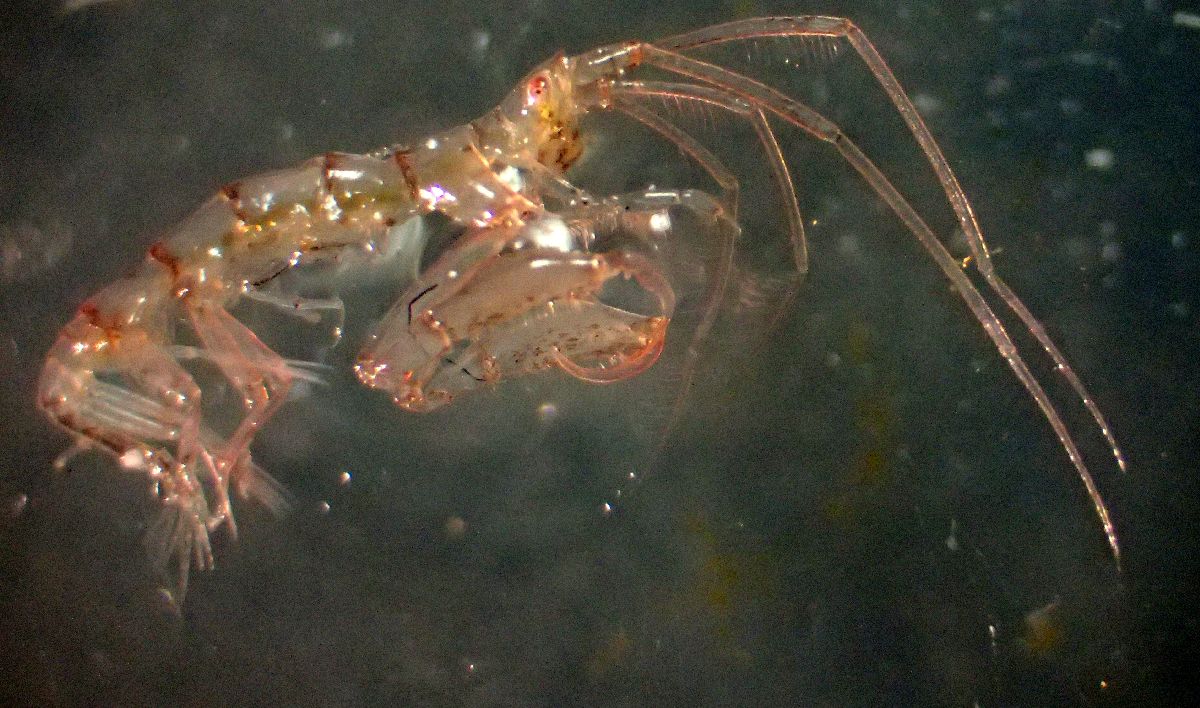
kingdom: Animalia
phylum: Arthropoda
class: Malacostraca
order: Amphipoda
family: Dulichiidae
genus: Dyopedos
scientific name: Dyopedos bispinis
